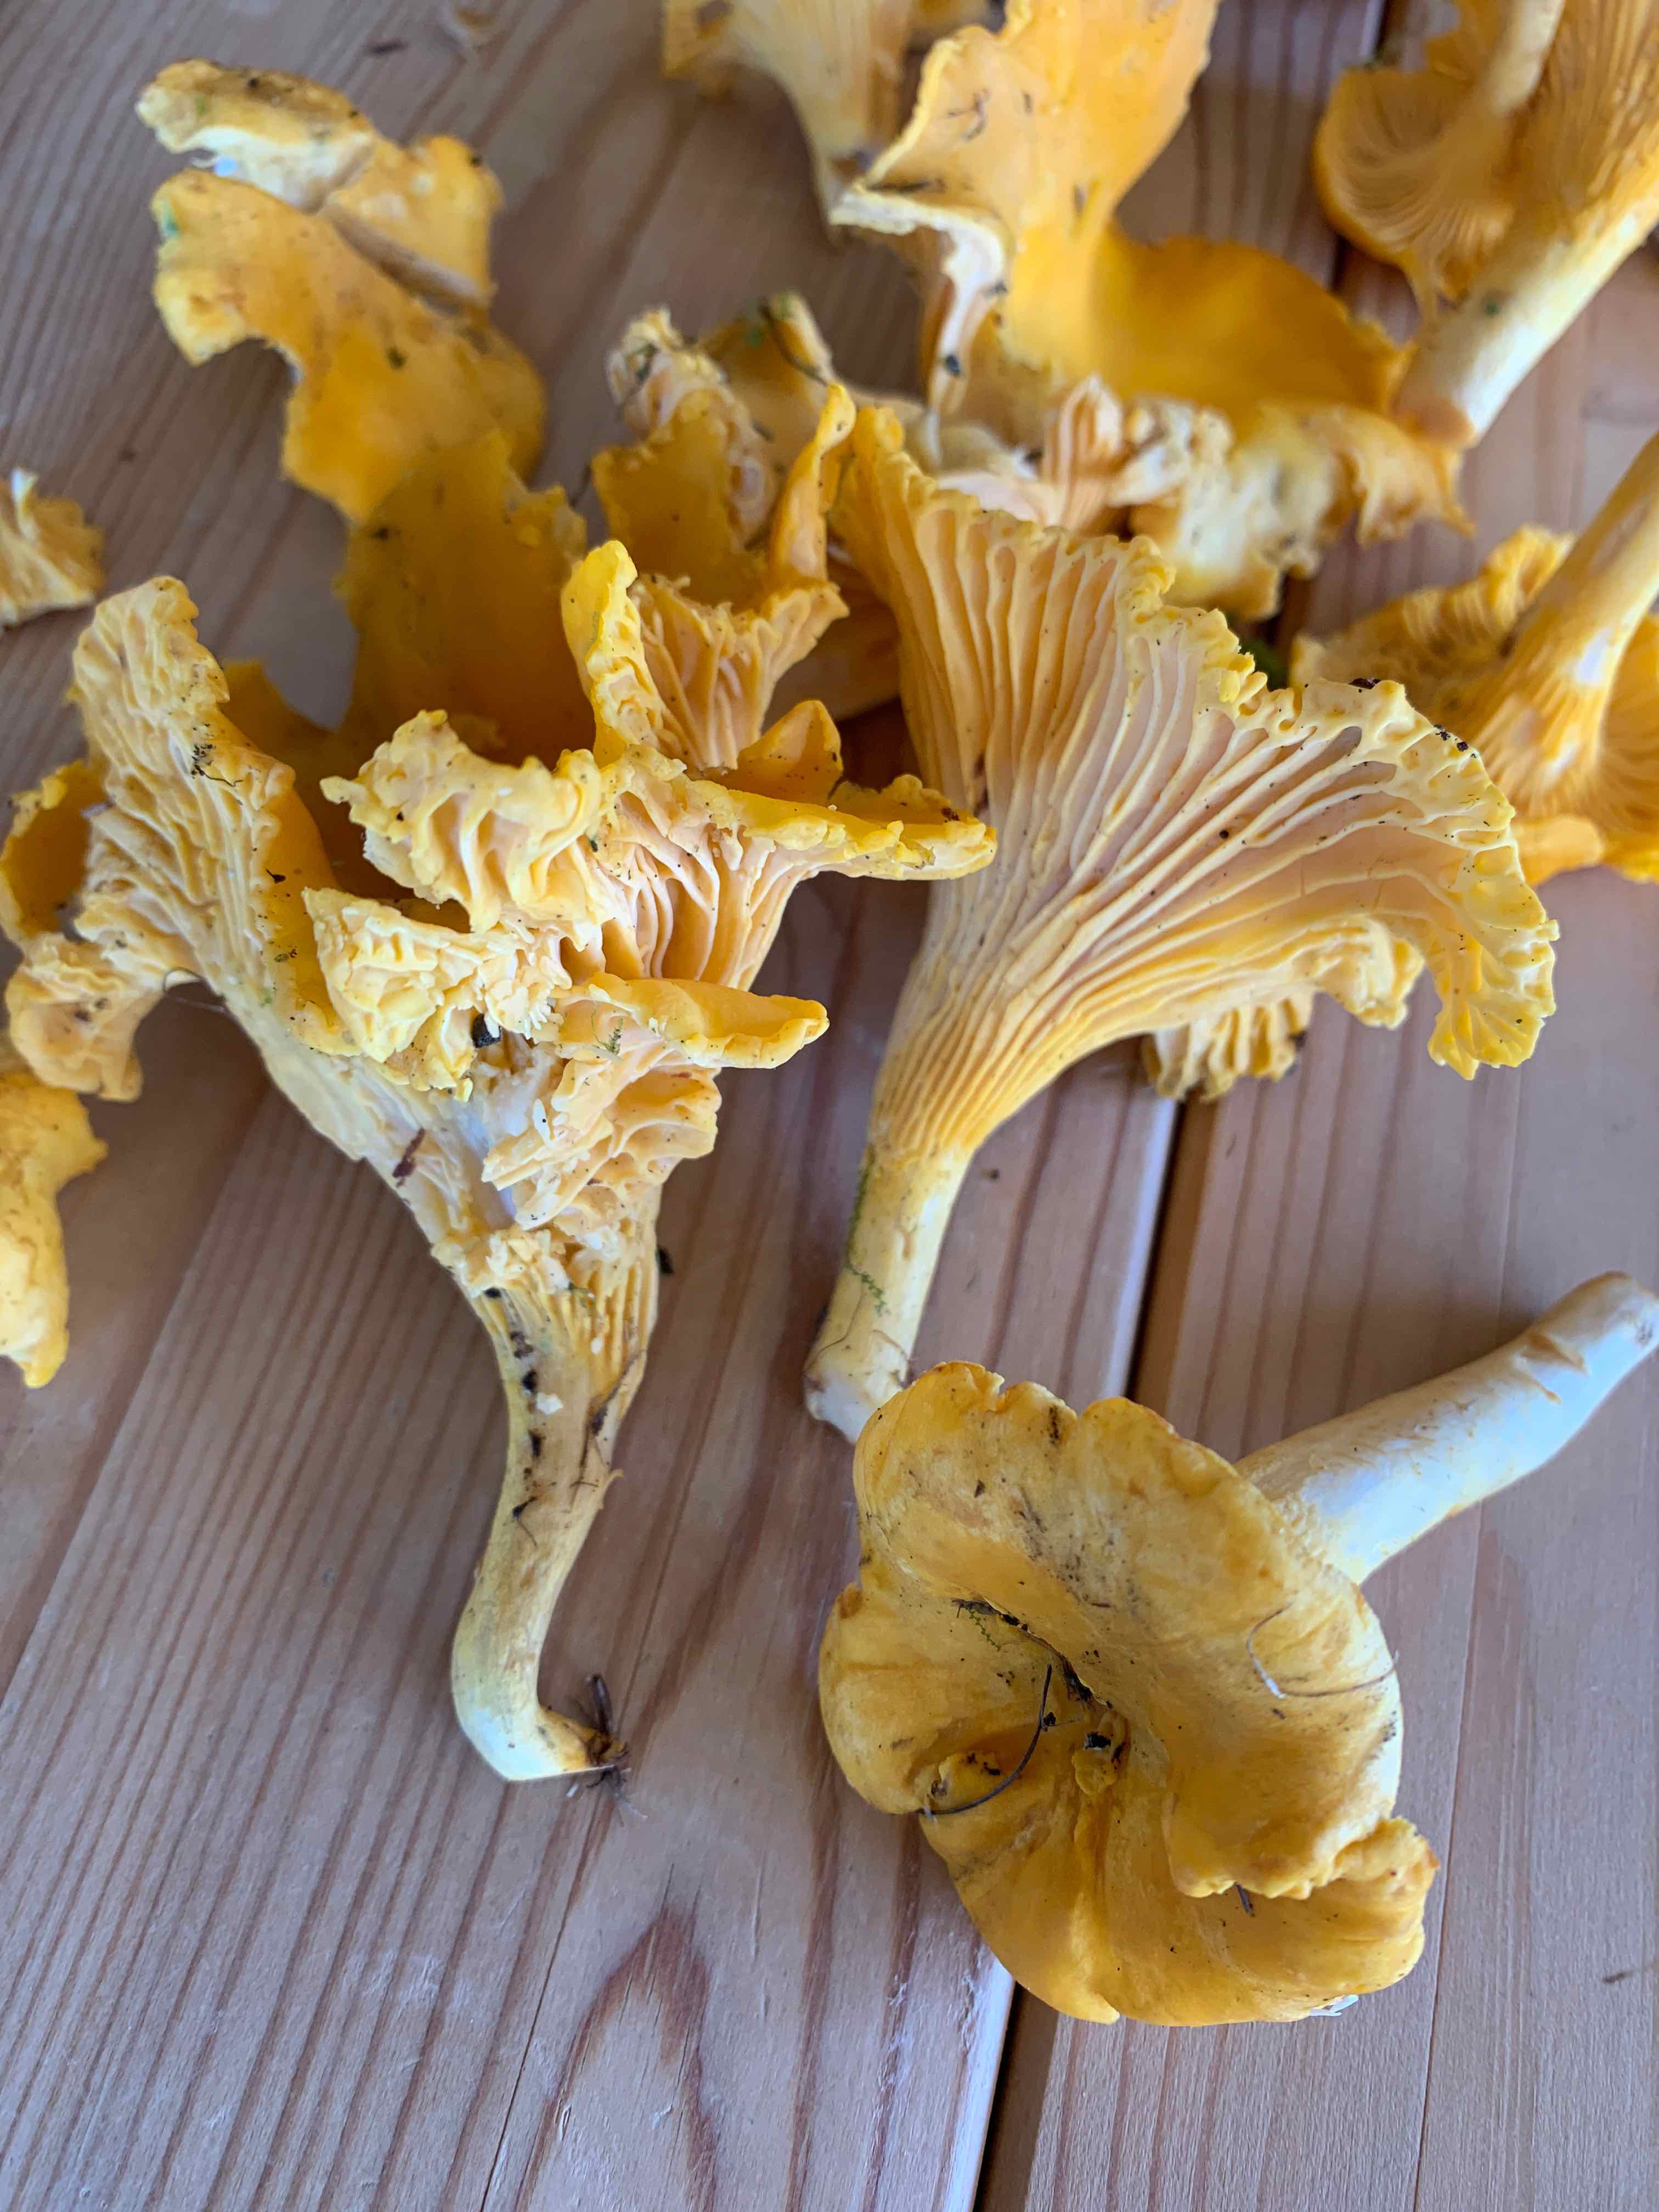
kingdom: Fungi
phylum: Basidiomycota
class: Agaricomycetes
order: Cantharellales
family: Hydnaceae
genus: Cantharellus
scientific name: Cantharellus cibarius
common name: almindelig kantarel
